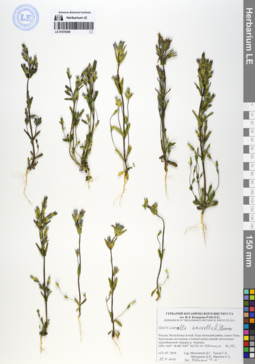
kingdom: Plantae
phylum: Tracheophyta
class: Magnoliopsida
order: Gentianales
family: Gentianaceae
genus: Gentianella
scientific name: Gentianella amarella
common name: Autumn gentian
